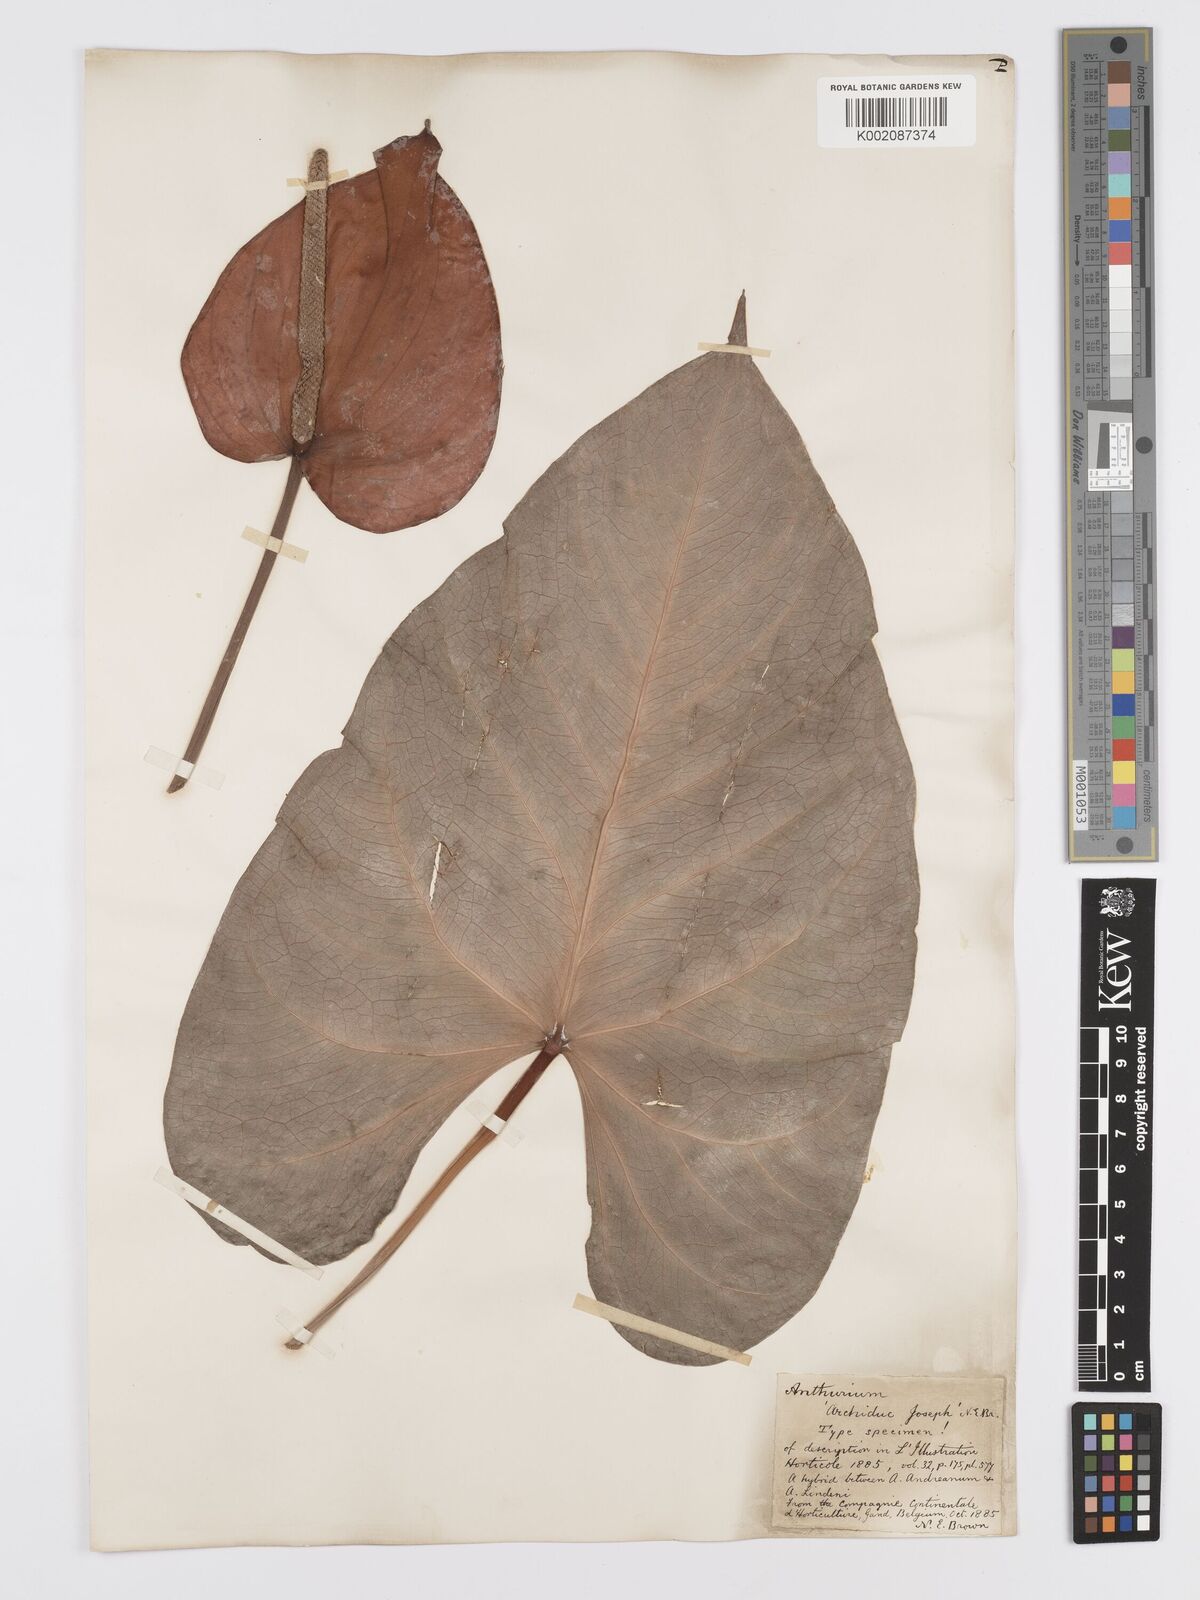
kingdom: Plantae
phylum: Tracheophyta
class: Liliopsida
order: Alismatales
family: Araceae
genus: Anthurium
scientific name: Anthurium
